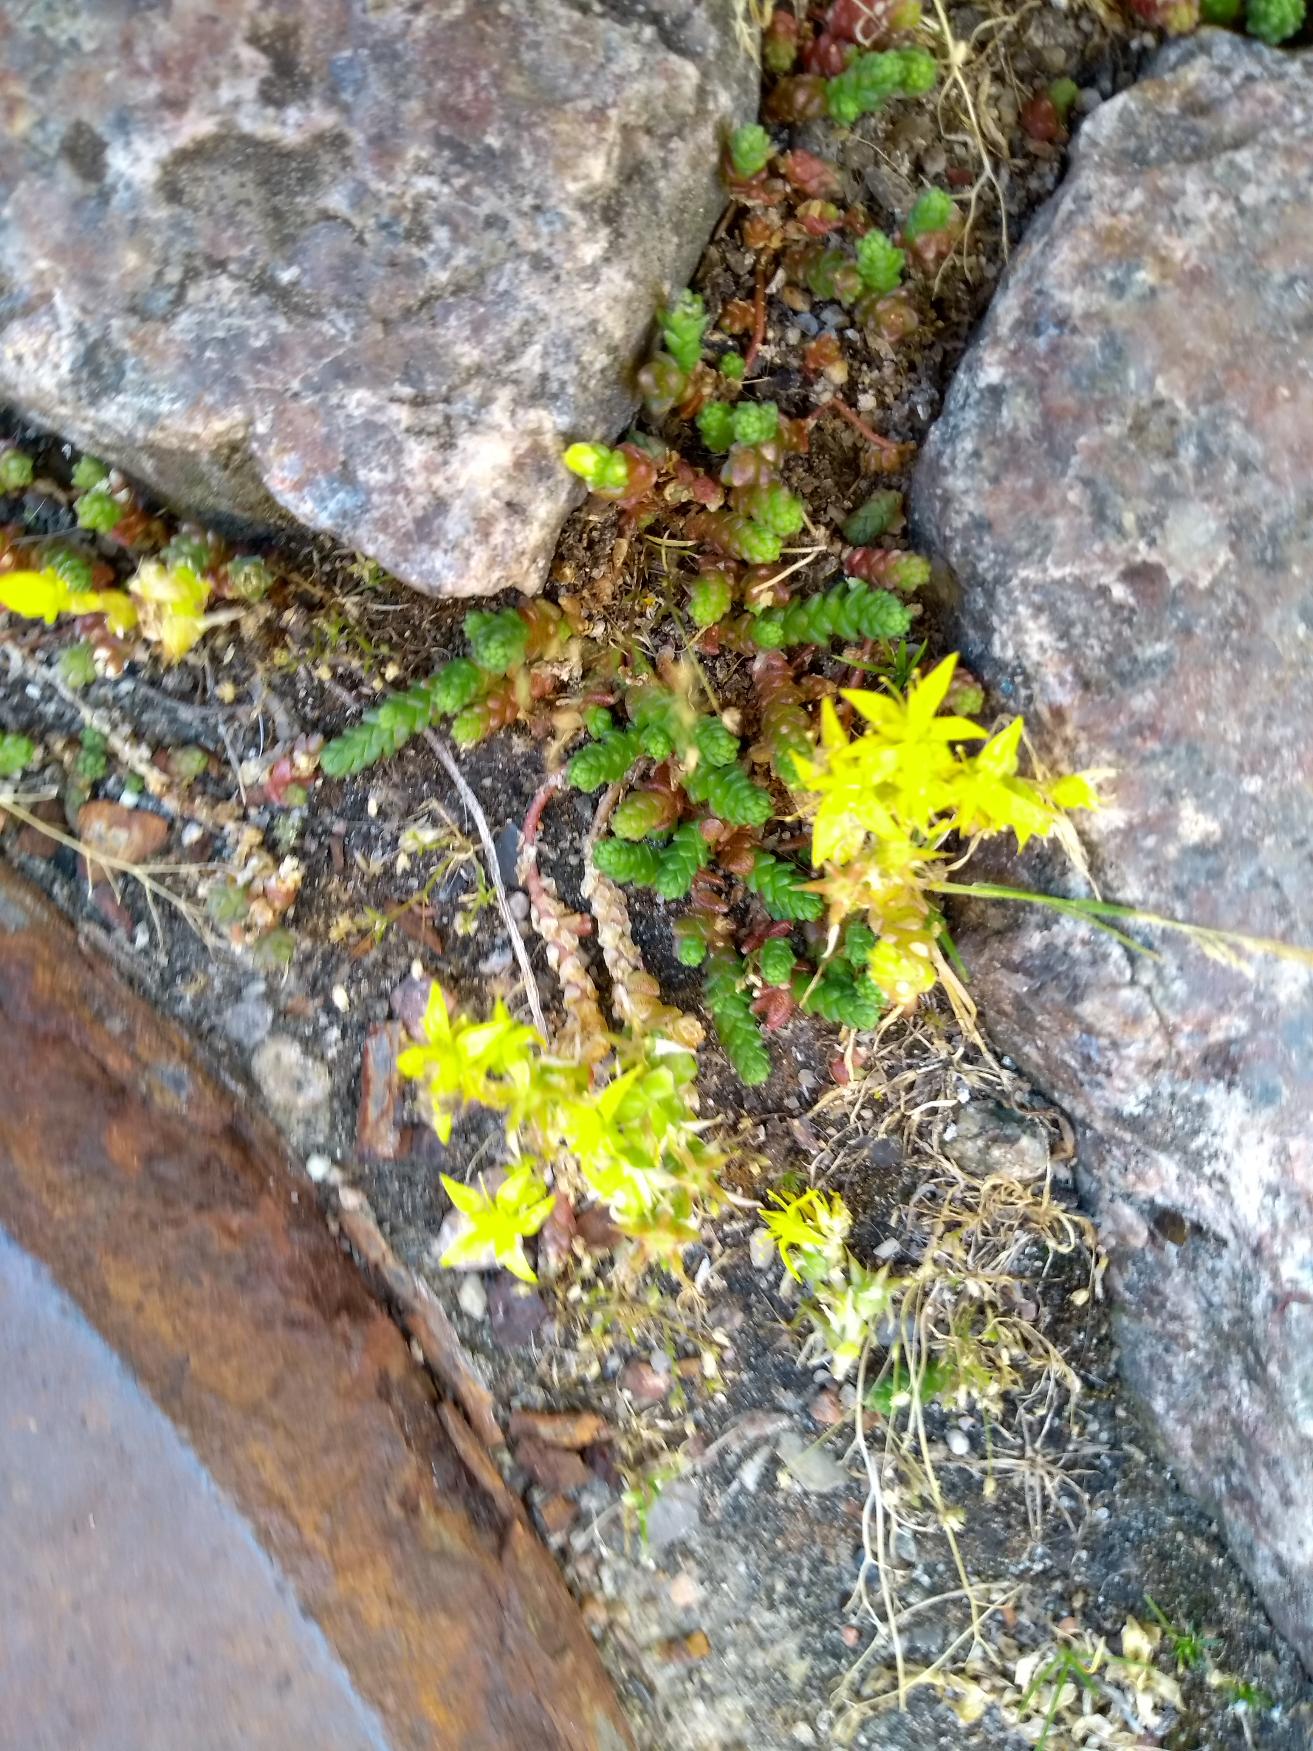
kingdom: Plantae
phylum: Tracheophyta
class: Magnoliopsida
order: Saxifragales
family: Crassulaceae
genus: Sedum
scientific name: Sedum acre
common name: Bidende stenurt
